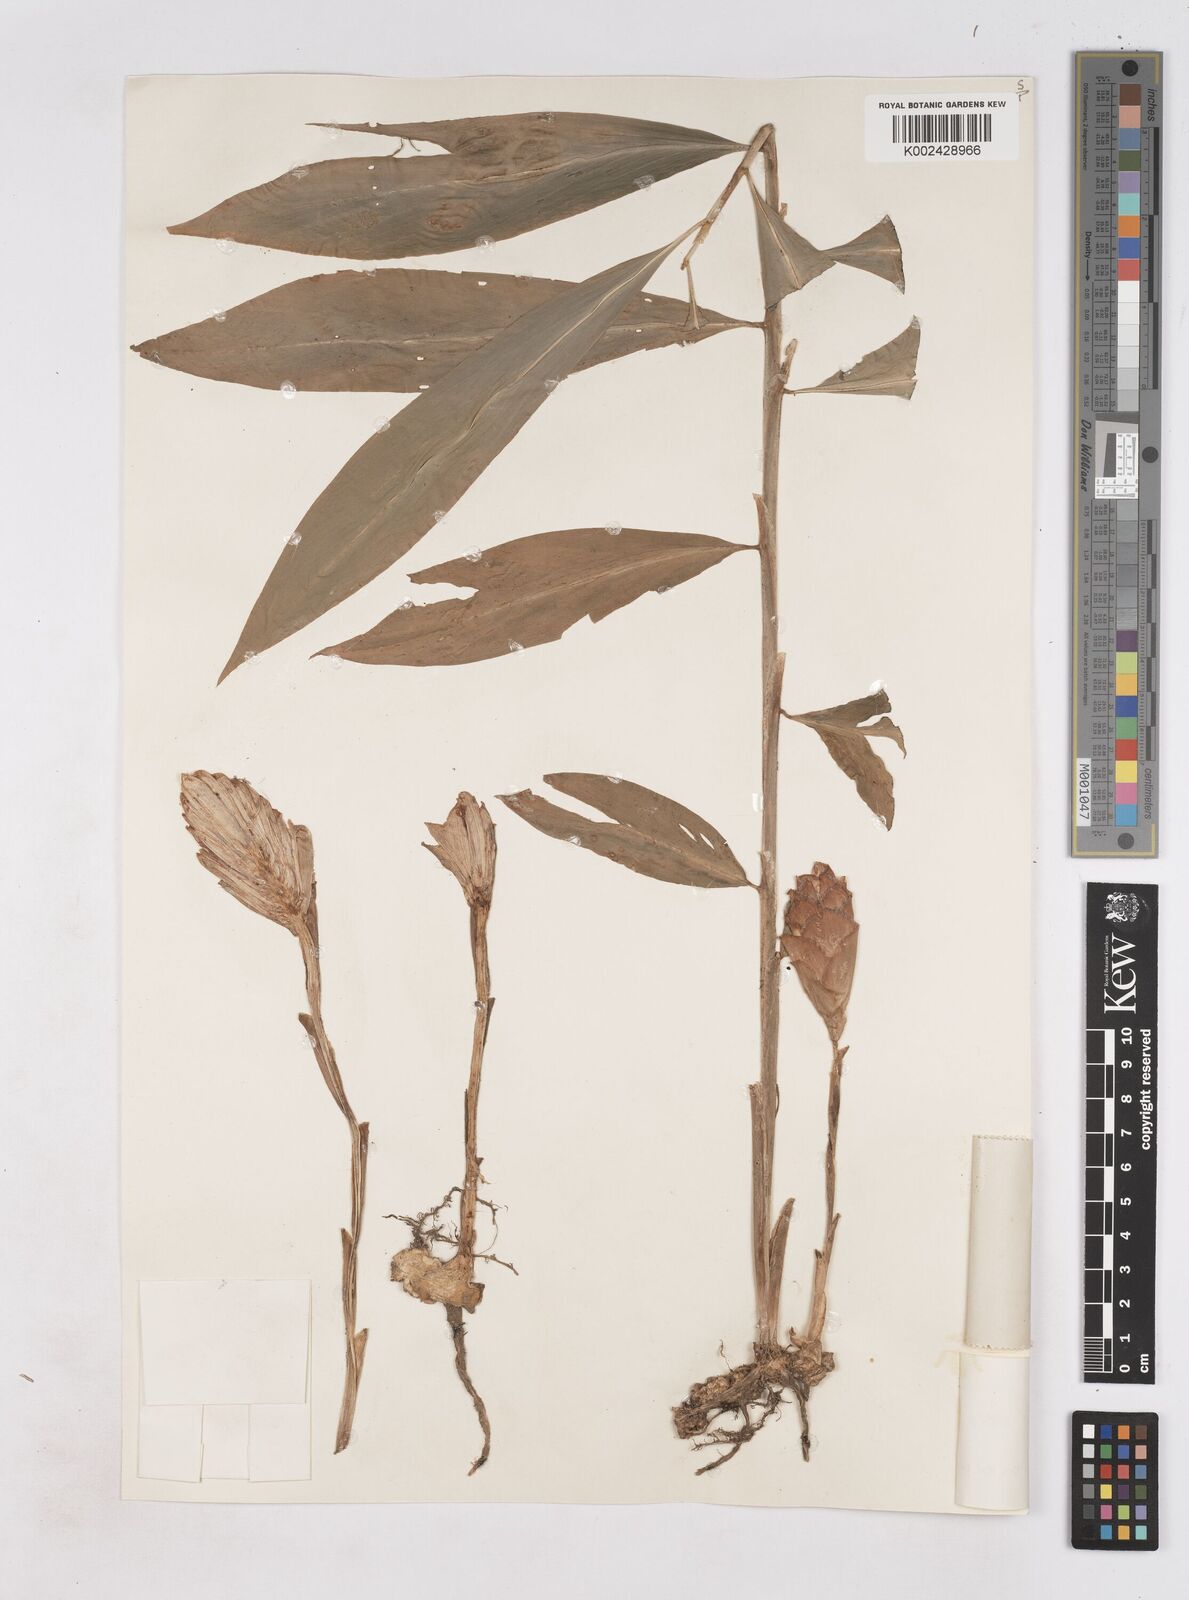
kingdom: Plantae
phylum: Tracheophyta
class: Liliopsida
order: Zingiberales
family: Zingiberaceae
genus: Zingiber
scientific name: Zingiber zerumbet
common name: Bitter ginger
